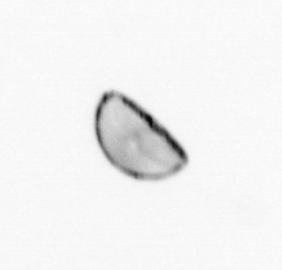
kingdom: Chromista
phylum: Ochrophyta
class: Bacillariophyceae
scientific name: Bacillariophyceae
